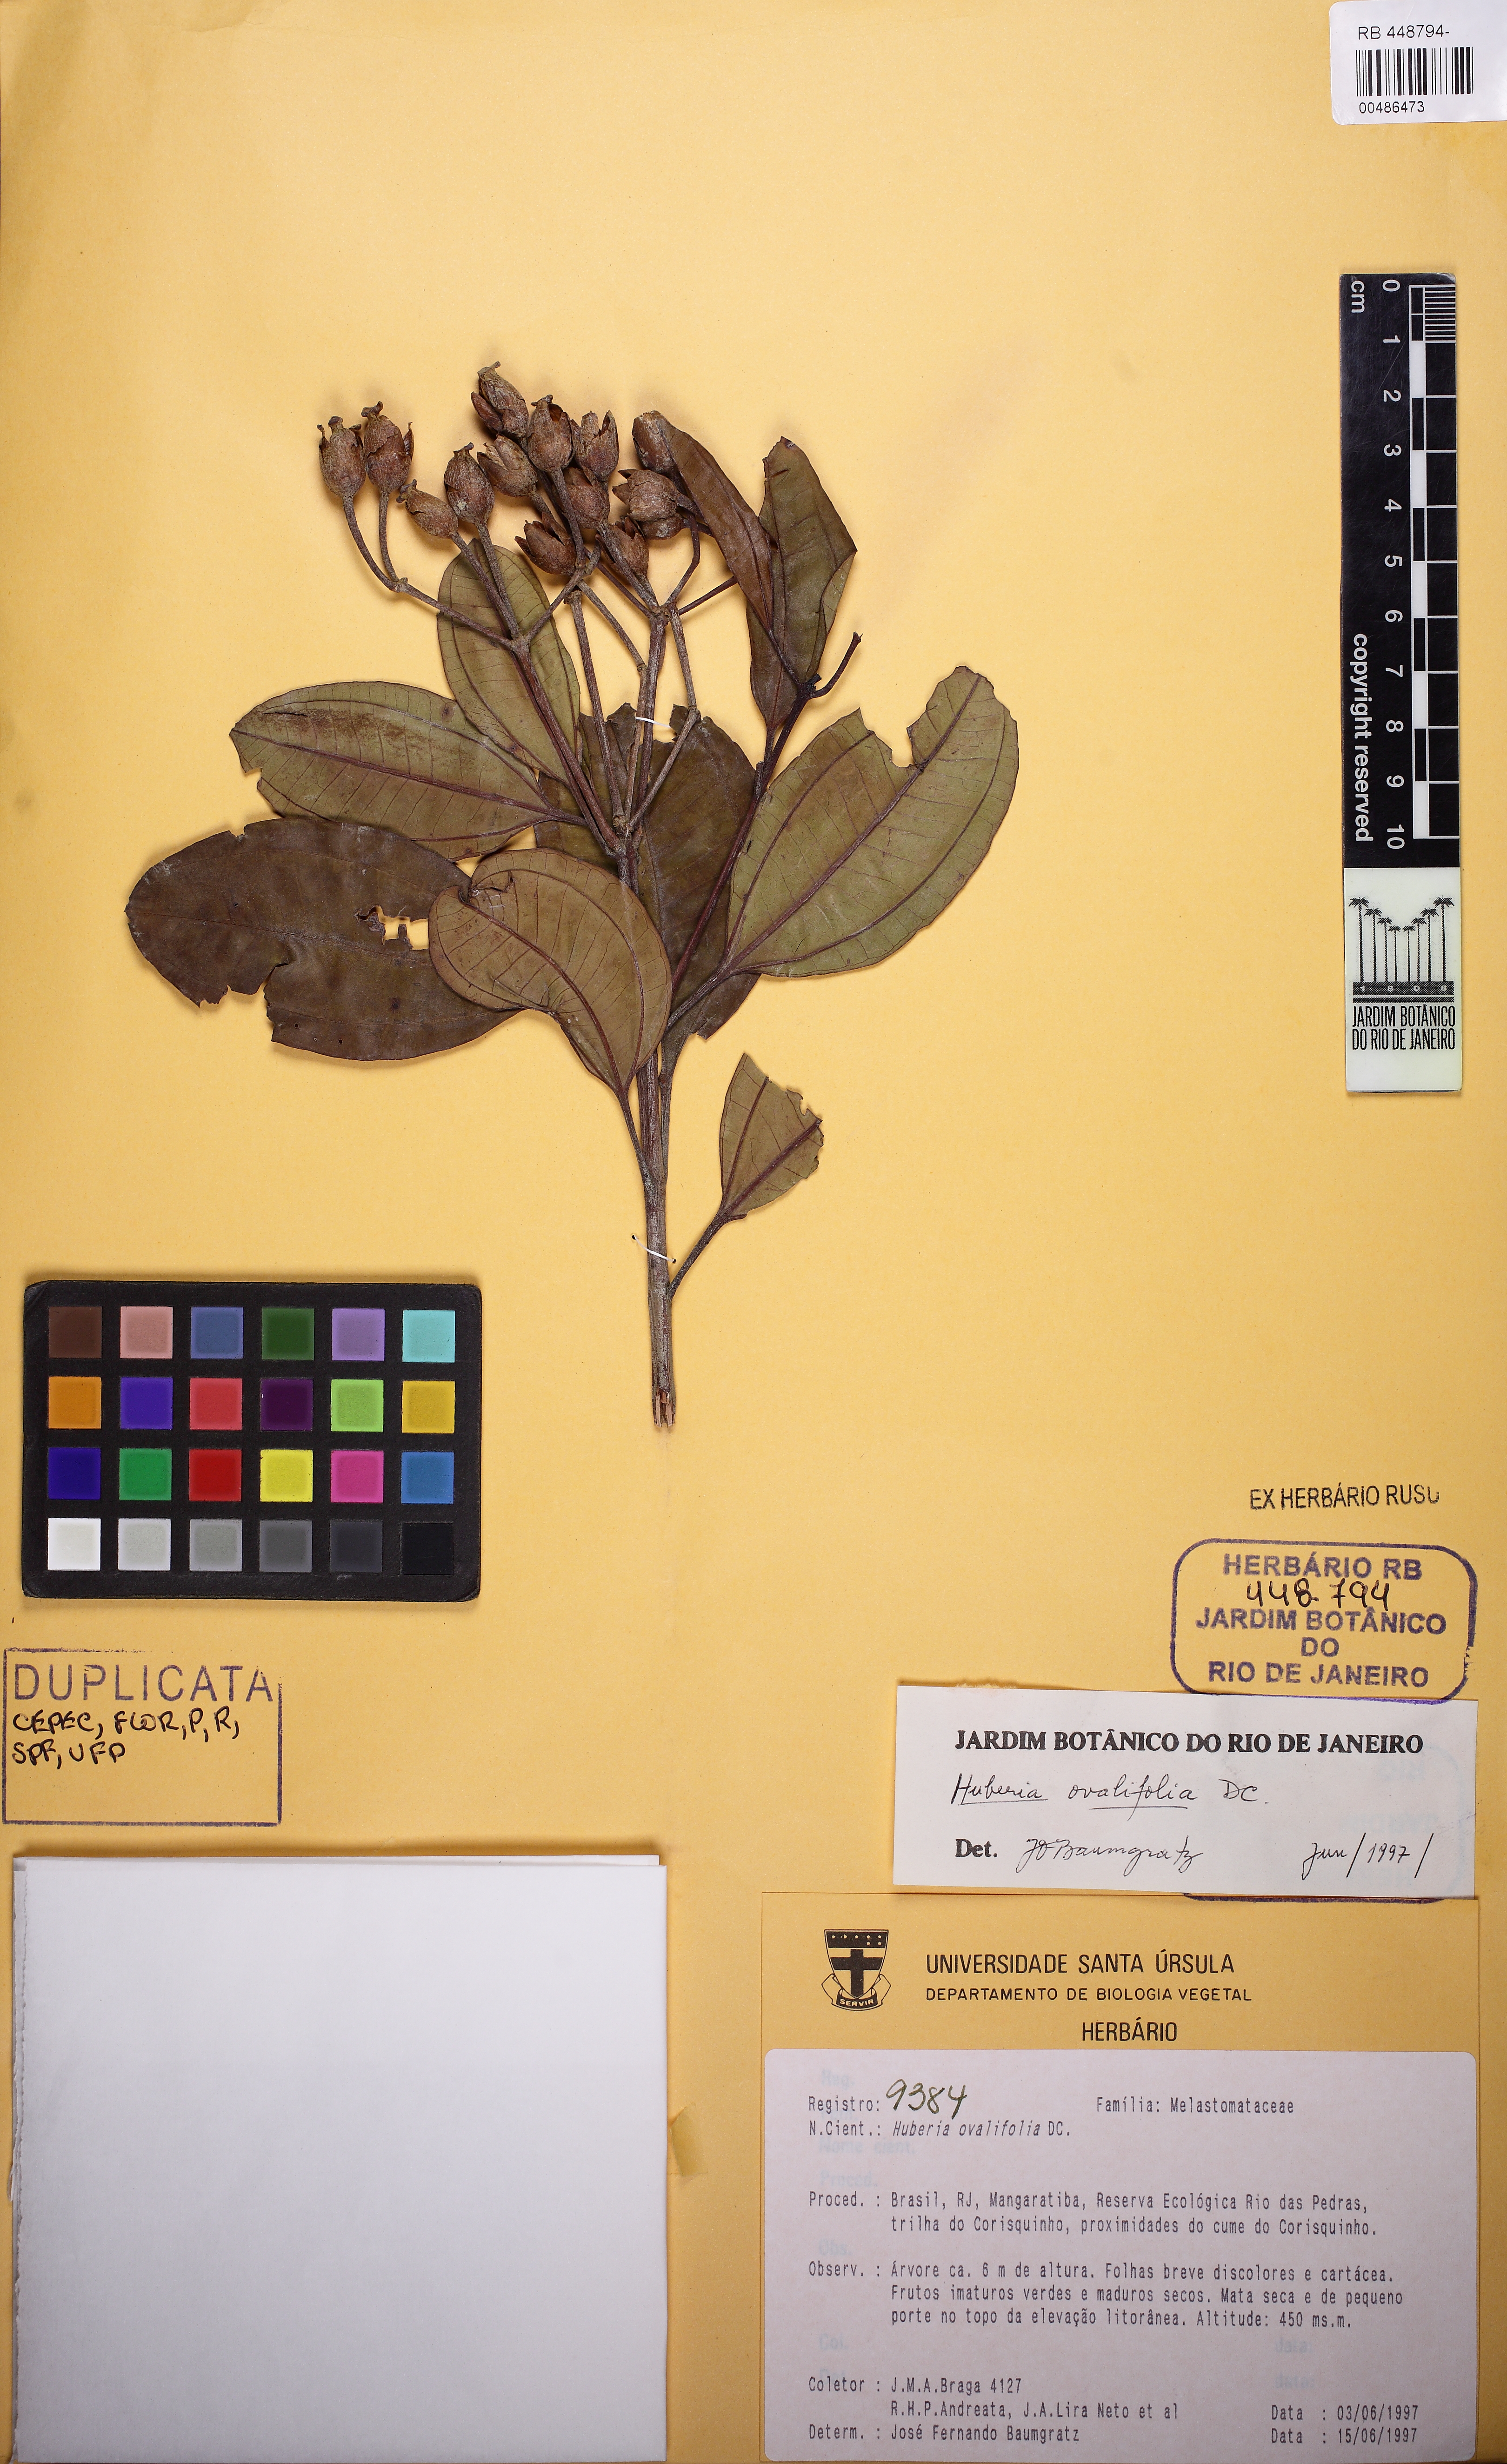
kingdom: Plantae
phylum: Tracheophyta
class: Magnoliopsida
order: Myrtales
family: Melastomataceae
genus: Huberia
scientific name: Huberia ovalifolia
